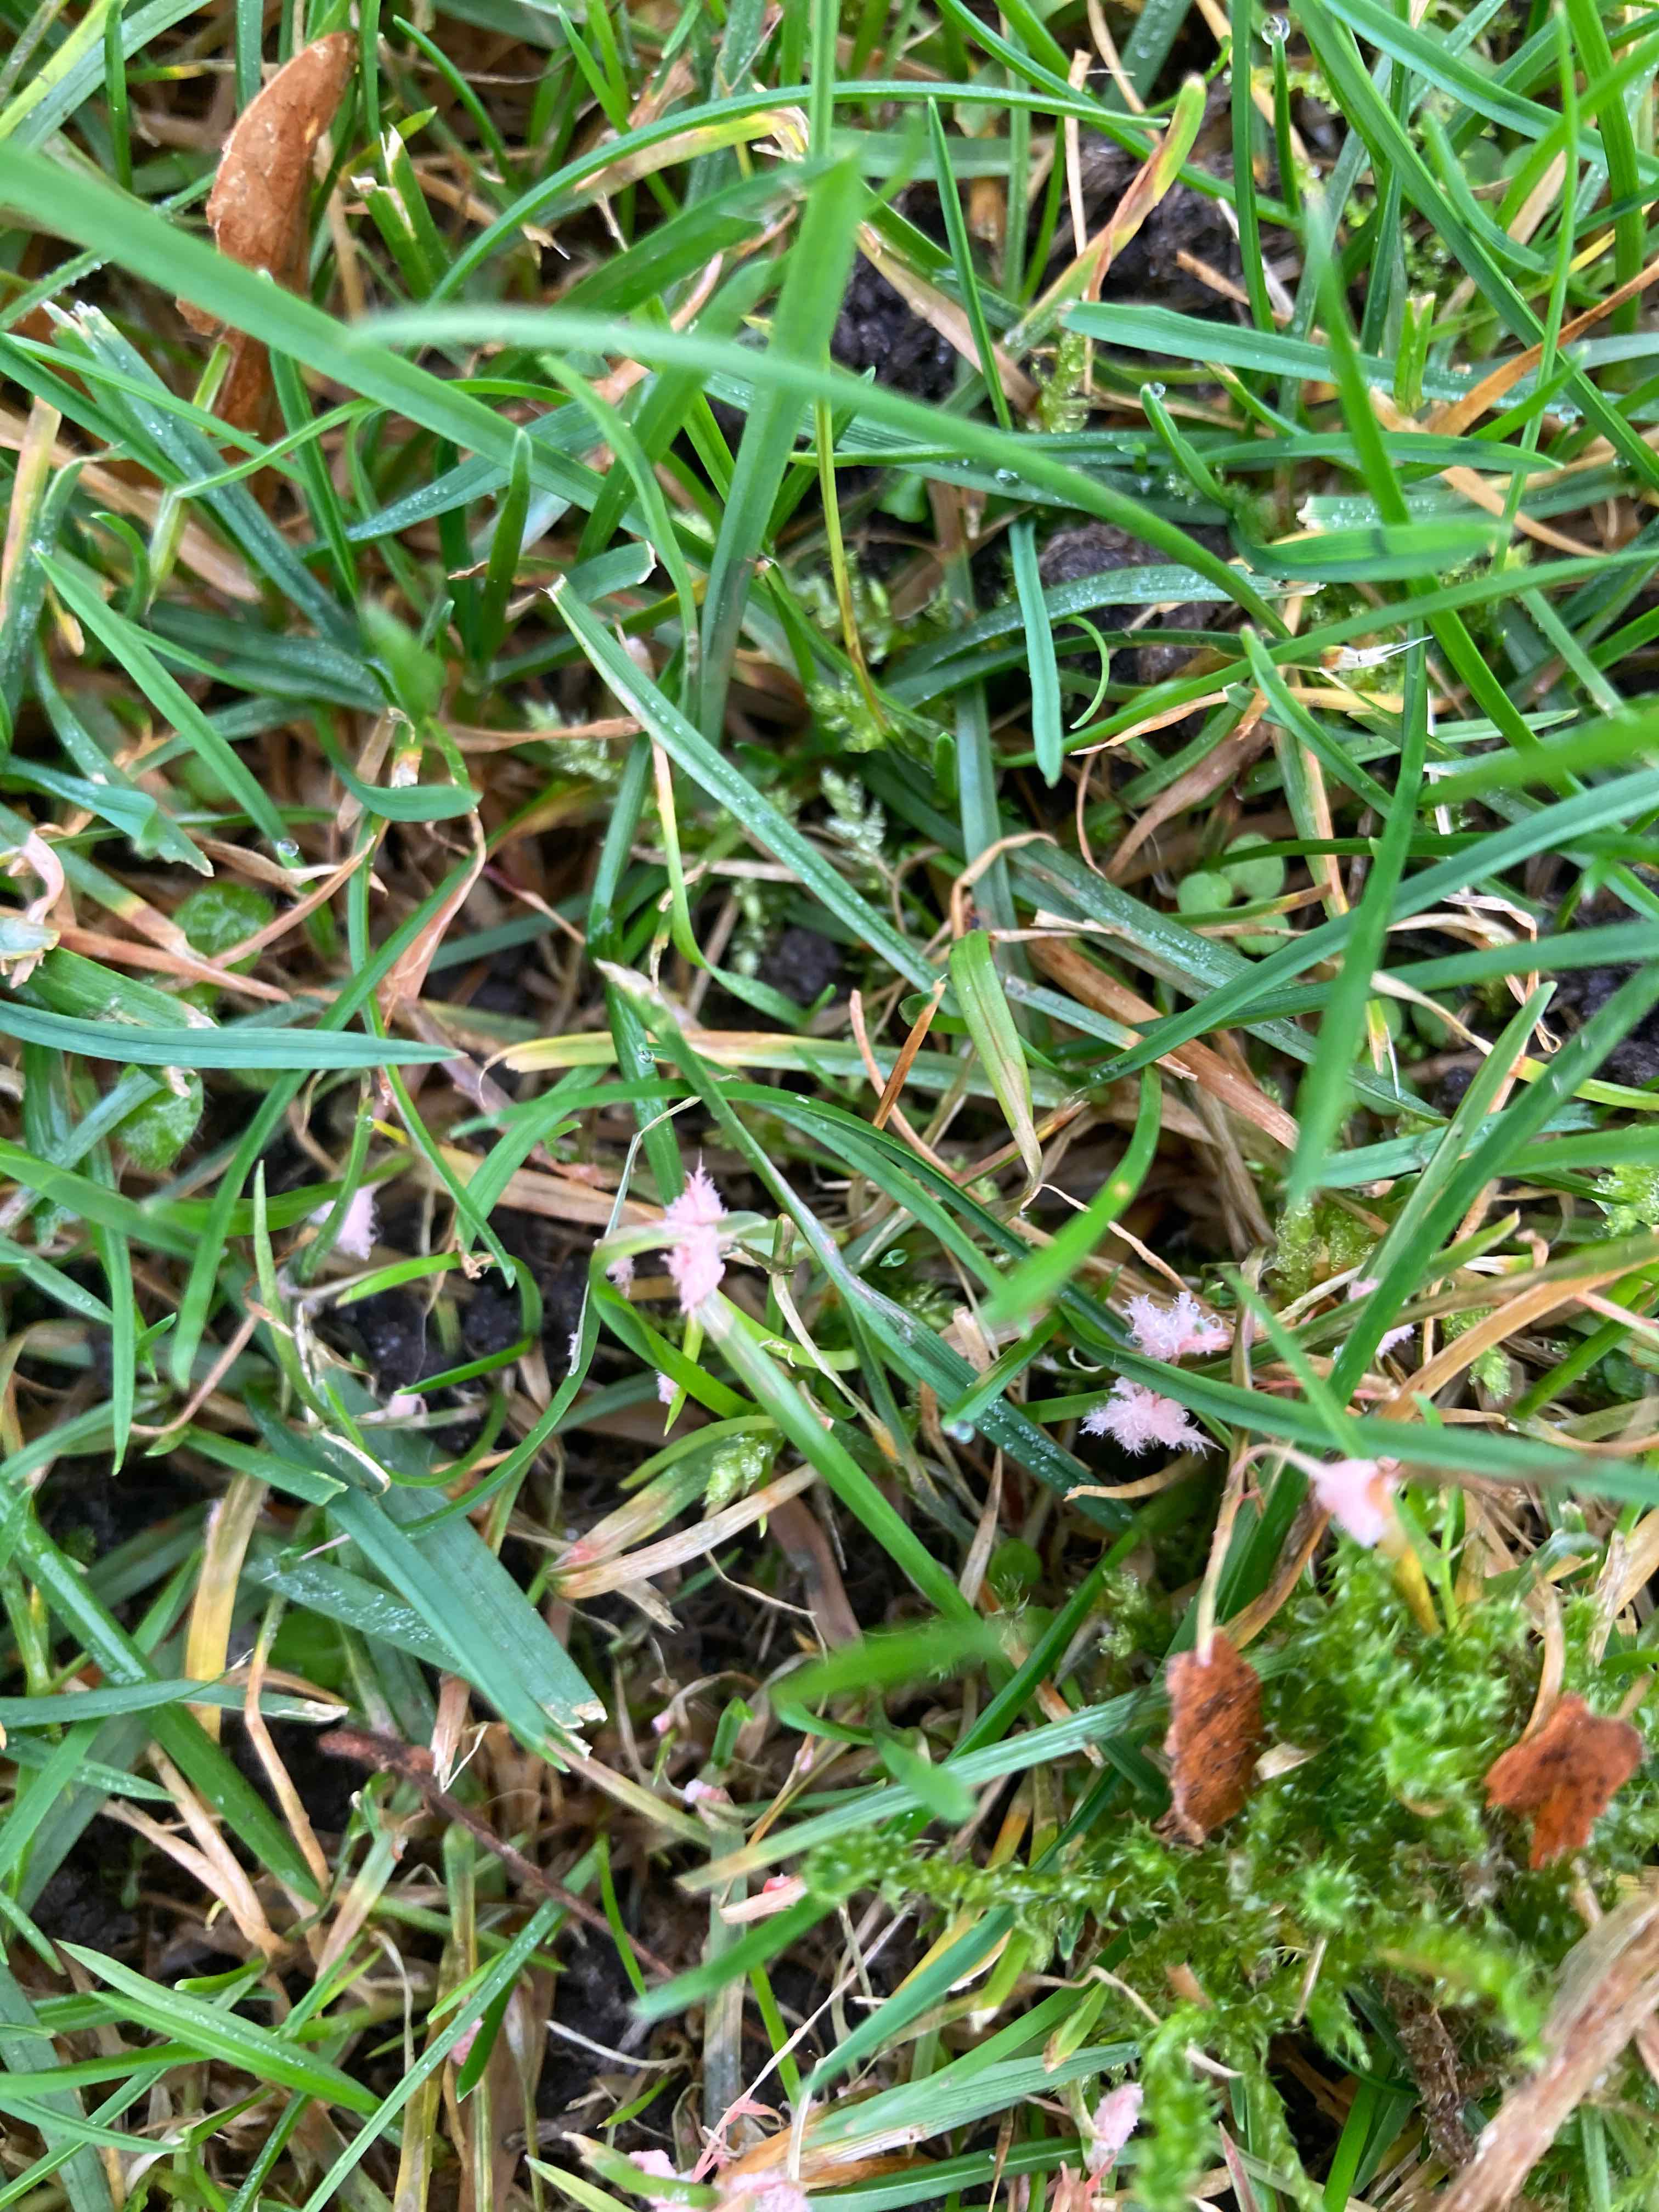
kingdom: Fungi
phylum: Basidiomycota
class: Agaricomycetes
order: Corticiales
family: Corticiaceae
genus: Laetisaria
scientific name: Laetisaria
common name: rødtråd
